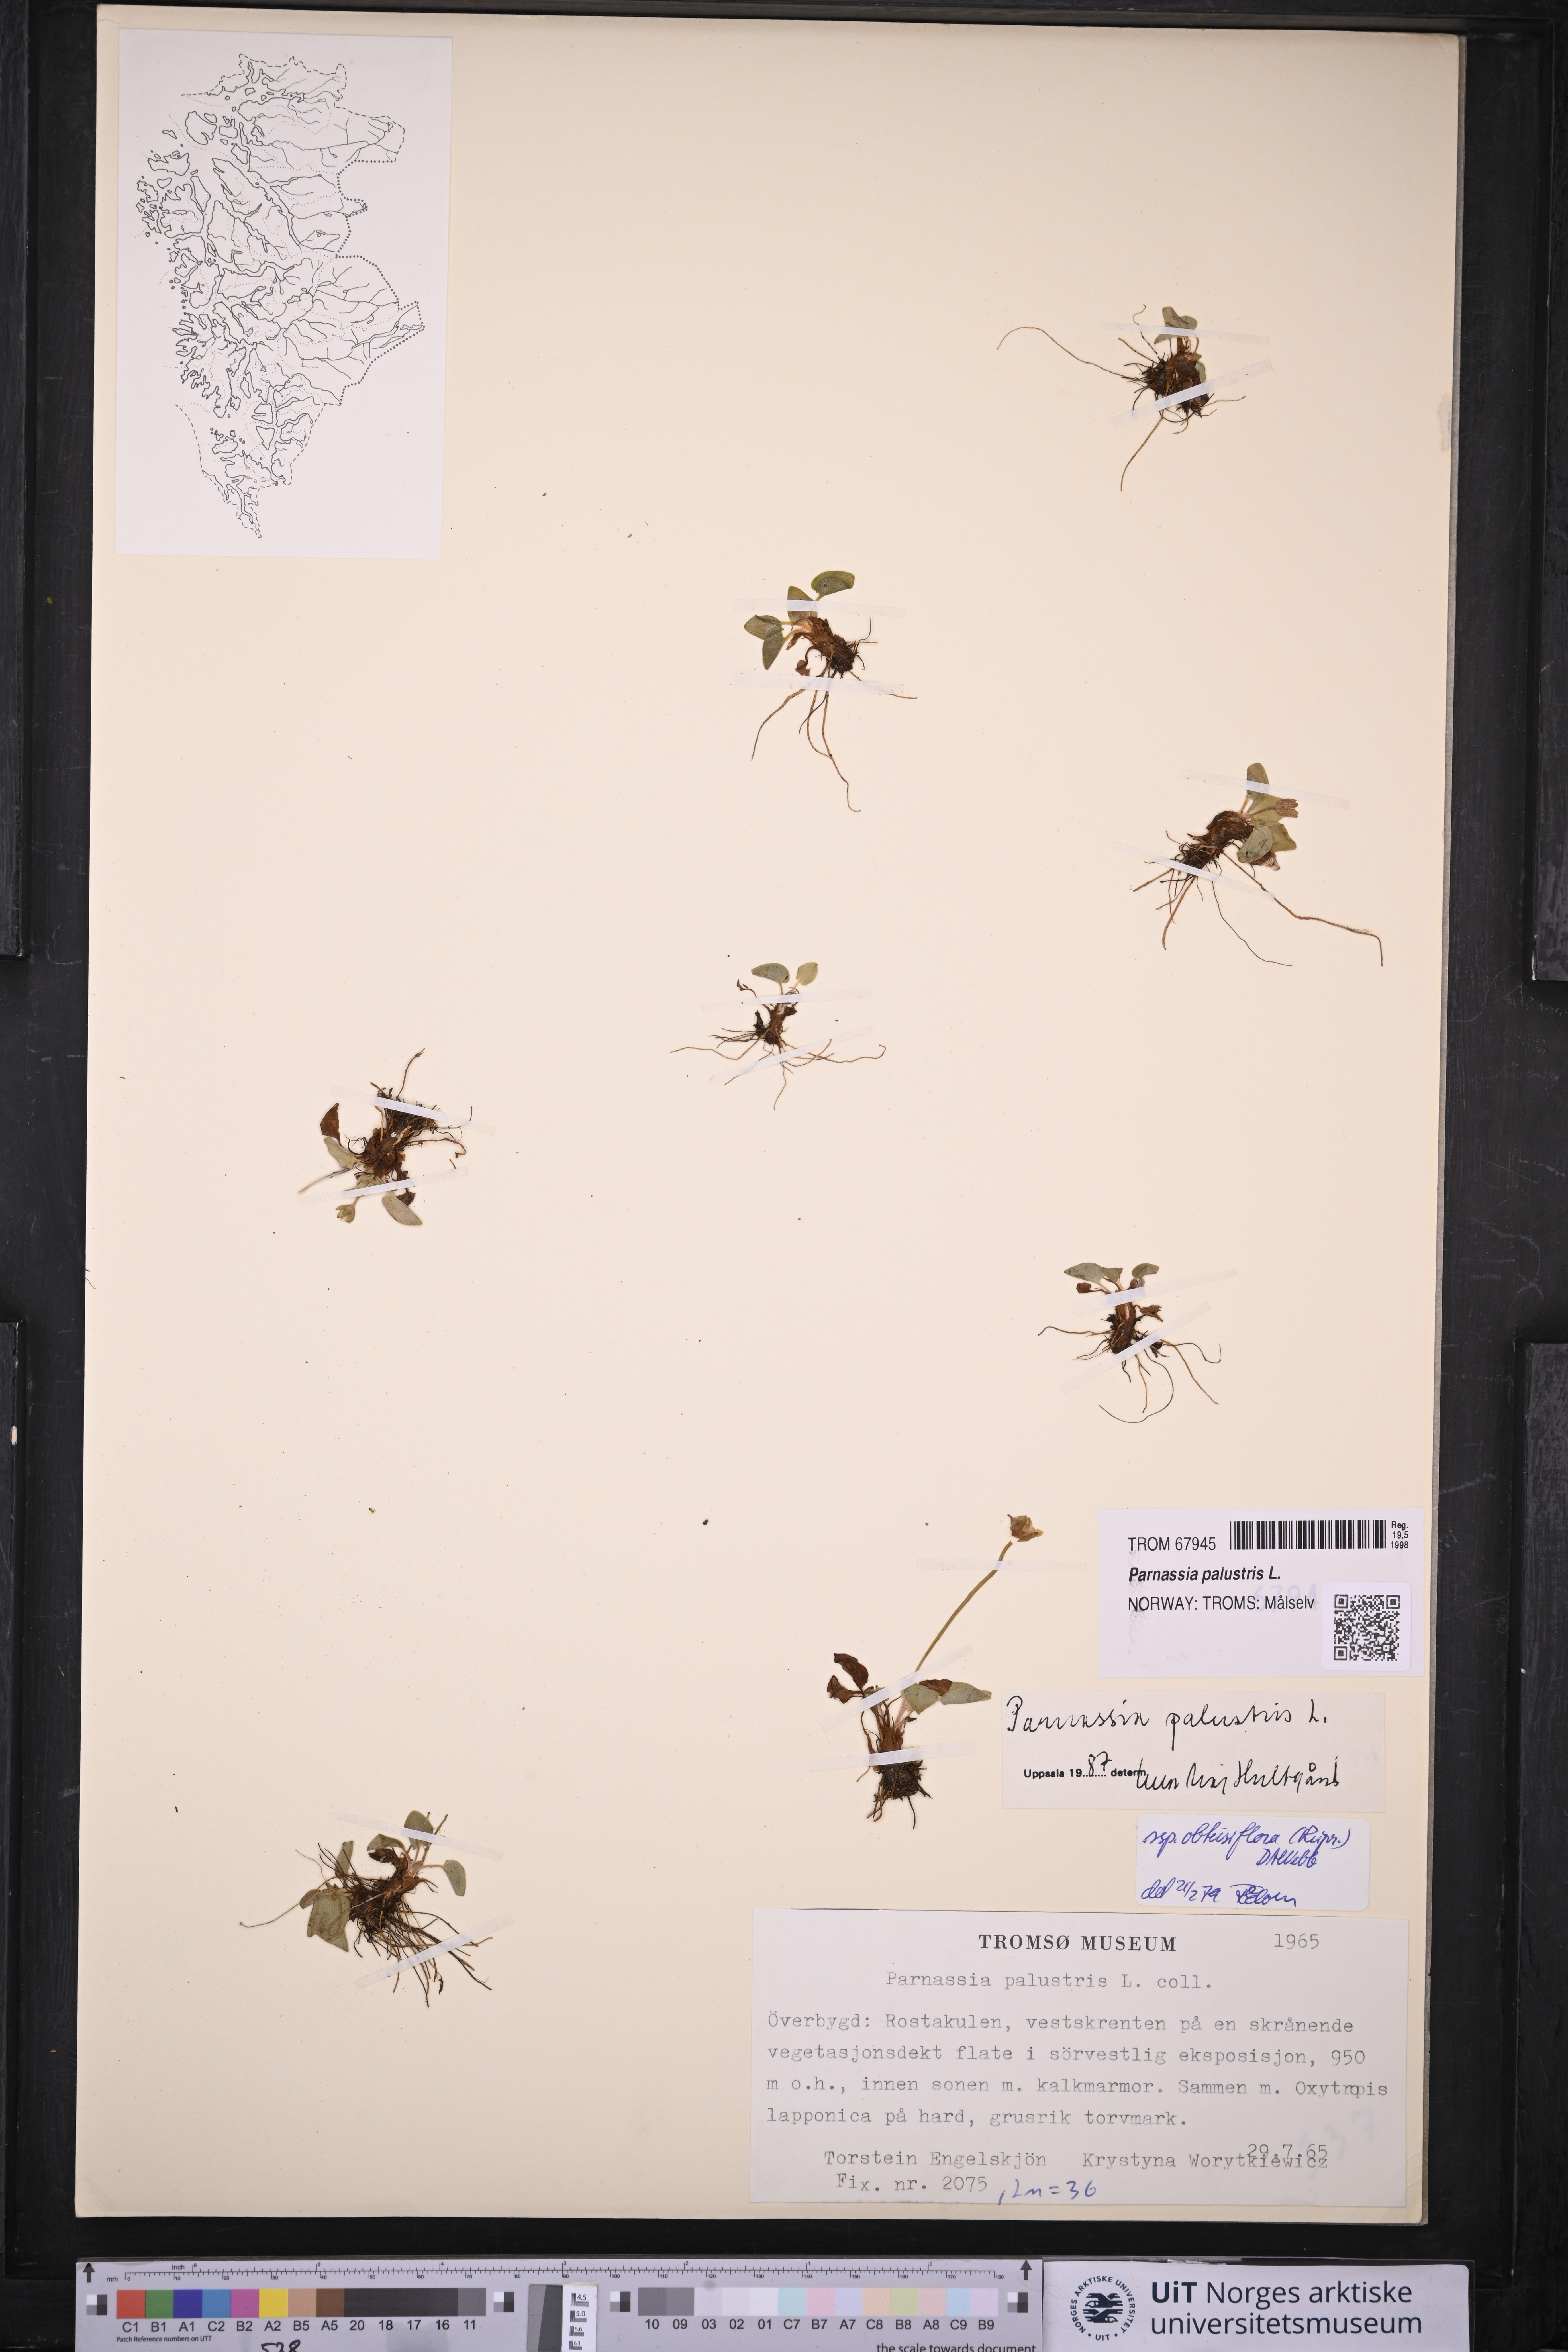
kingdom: Plantae
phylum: Tracheophyta
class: Magnoliopsida
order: Celastrales
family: Parnassiaceae
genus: Parnassia
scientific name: Parnassia palustris
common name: Grass-of-parnassus
